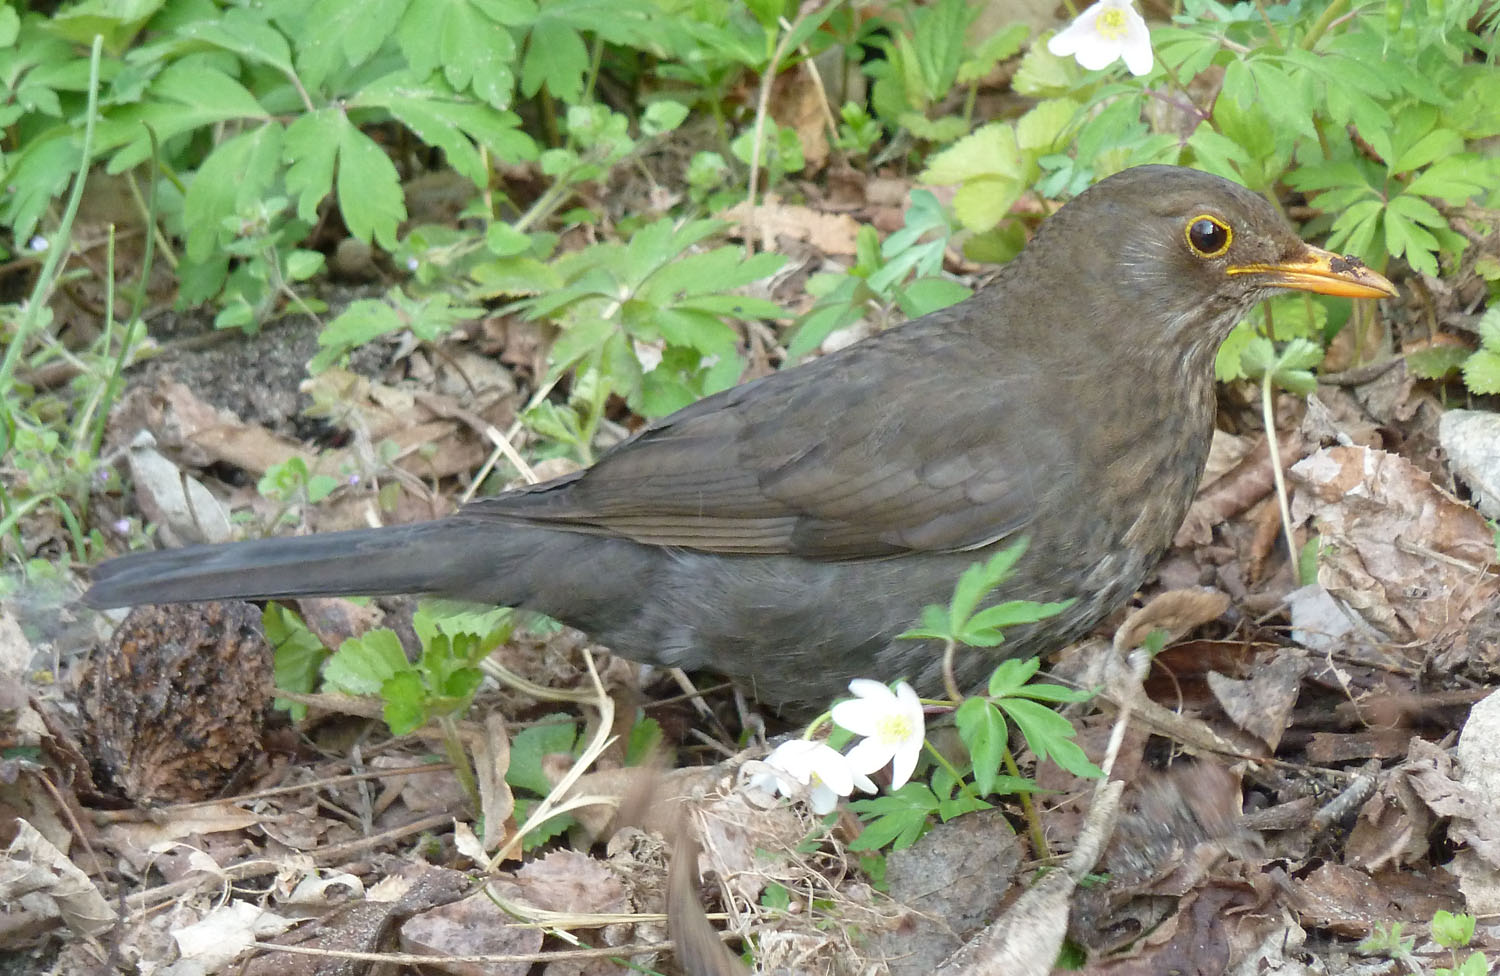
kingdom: Animalia
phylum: Chordata
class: Aves
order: Passeriformes
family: Turdidae
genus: Turdus
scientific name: Turdus merula
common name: Common blackbird
